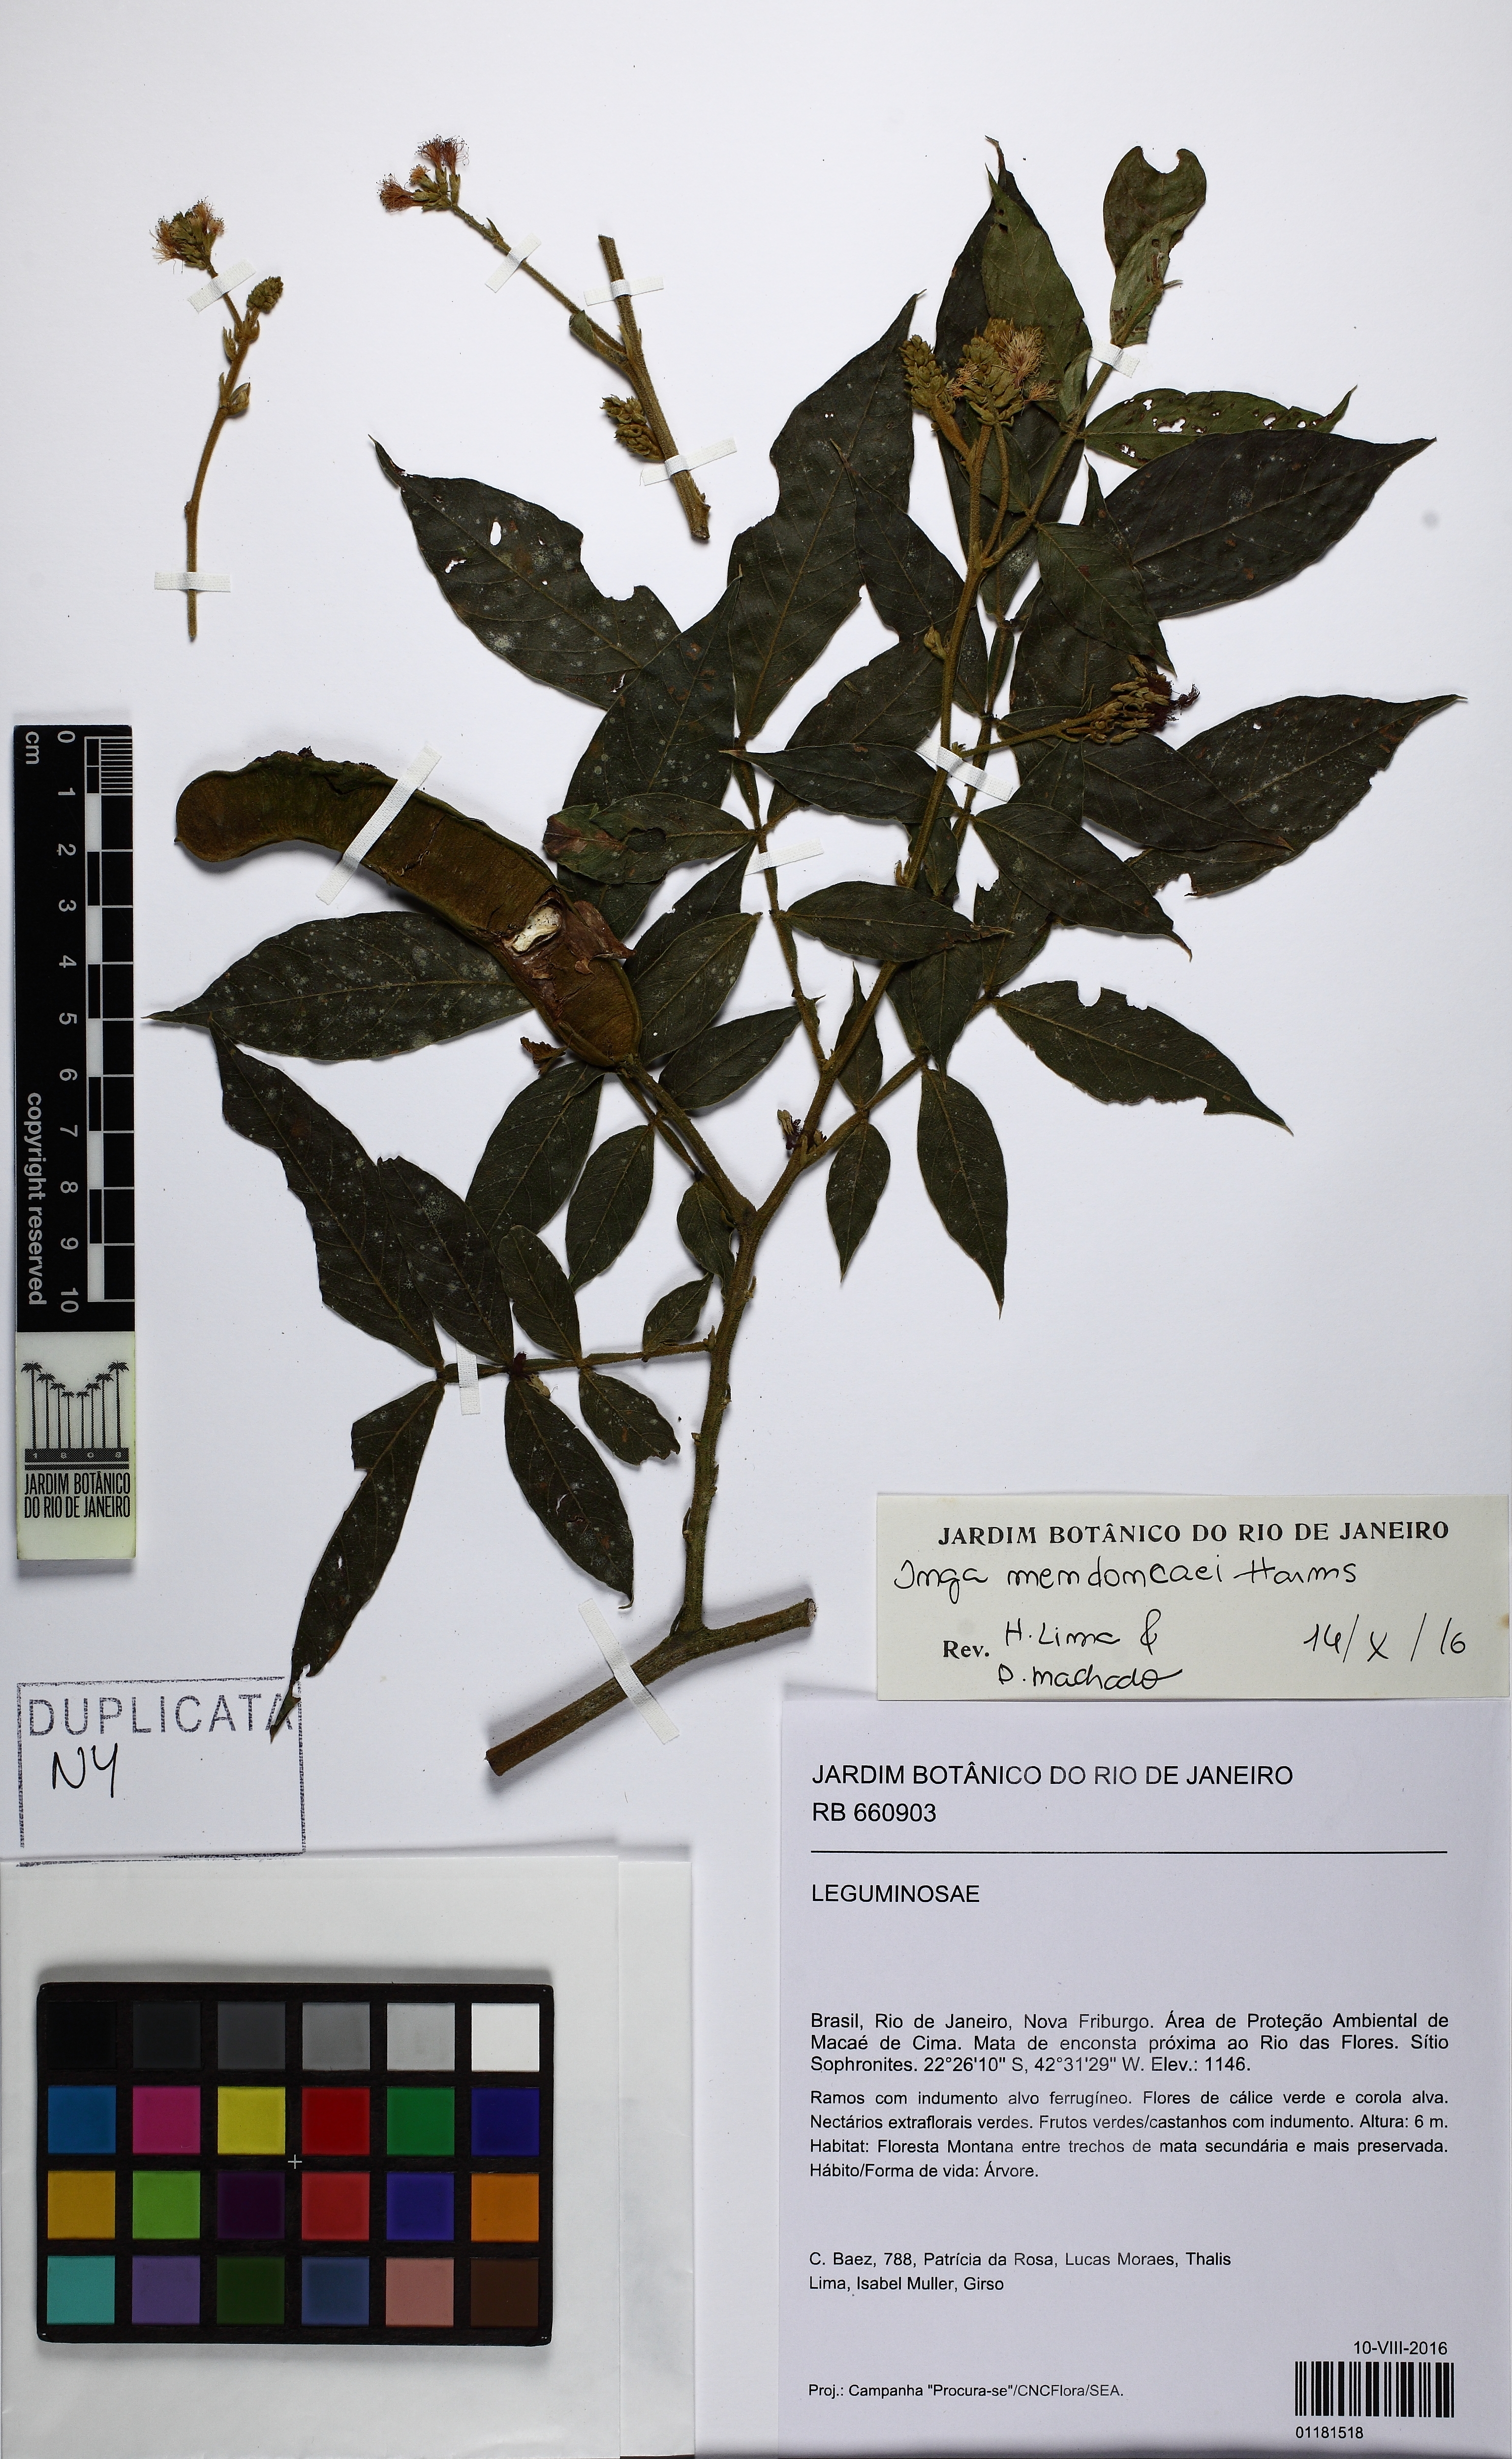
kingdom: Plantae
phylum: Tracheophyta
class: Magnoliopsida
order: Fabales
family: Fabaceae
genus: Inga
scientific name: Inga mendoncaei
